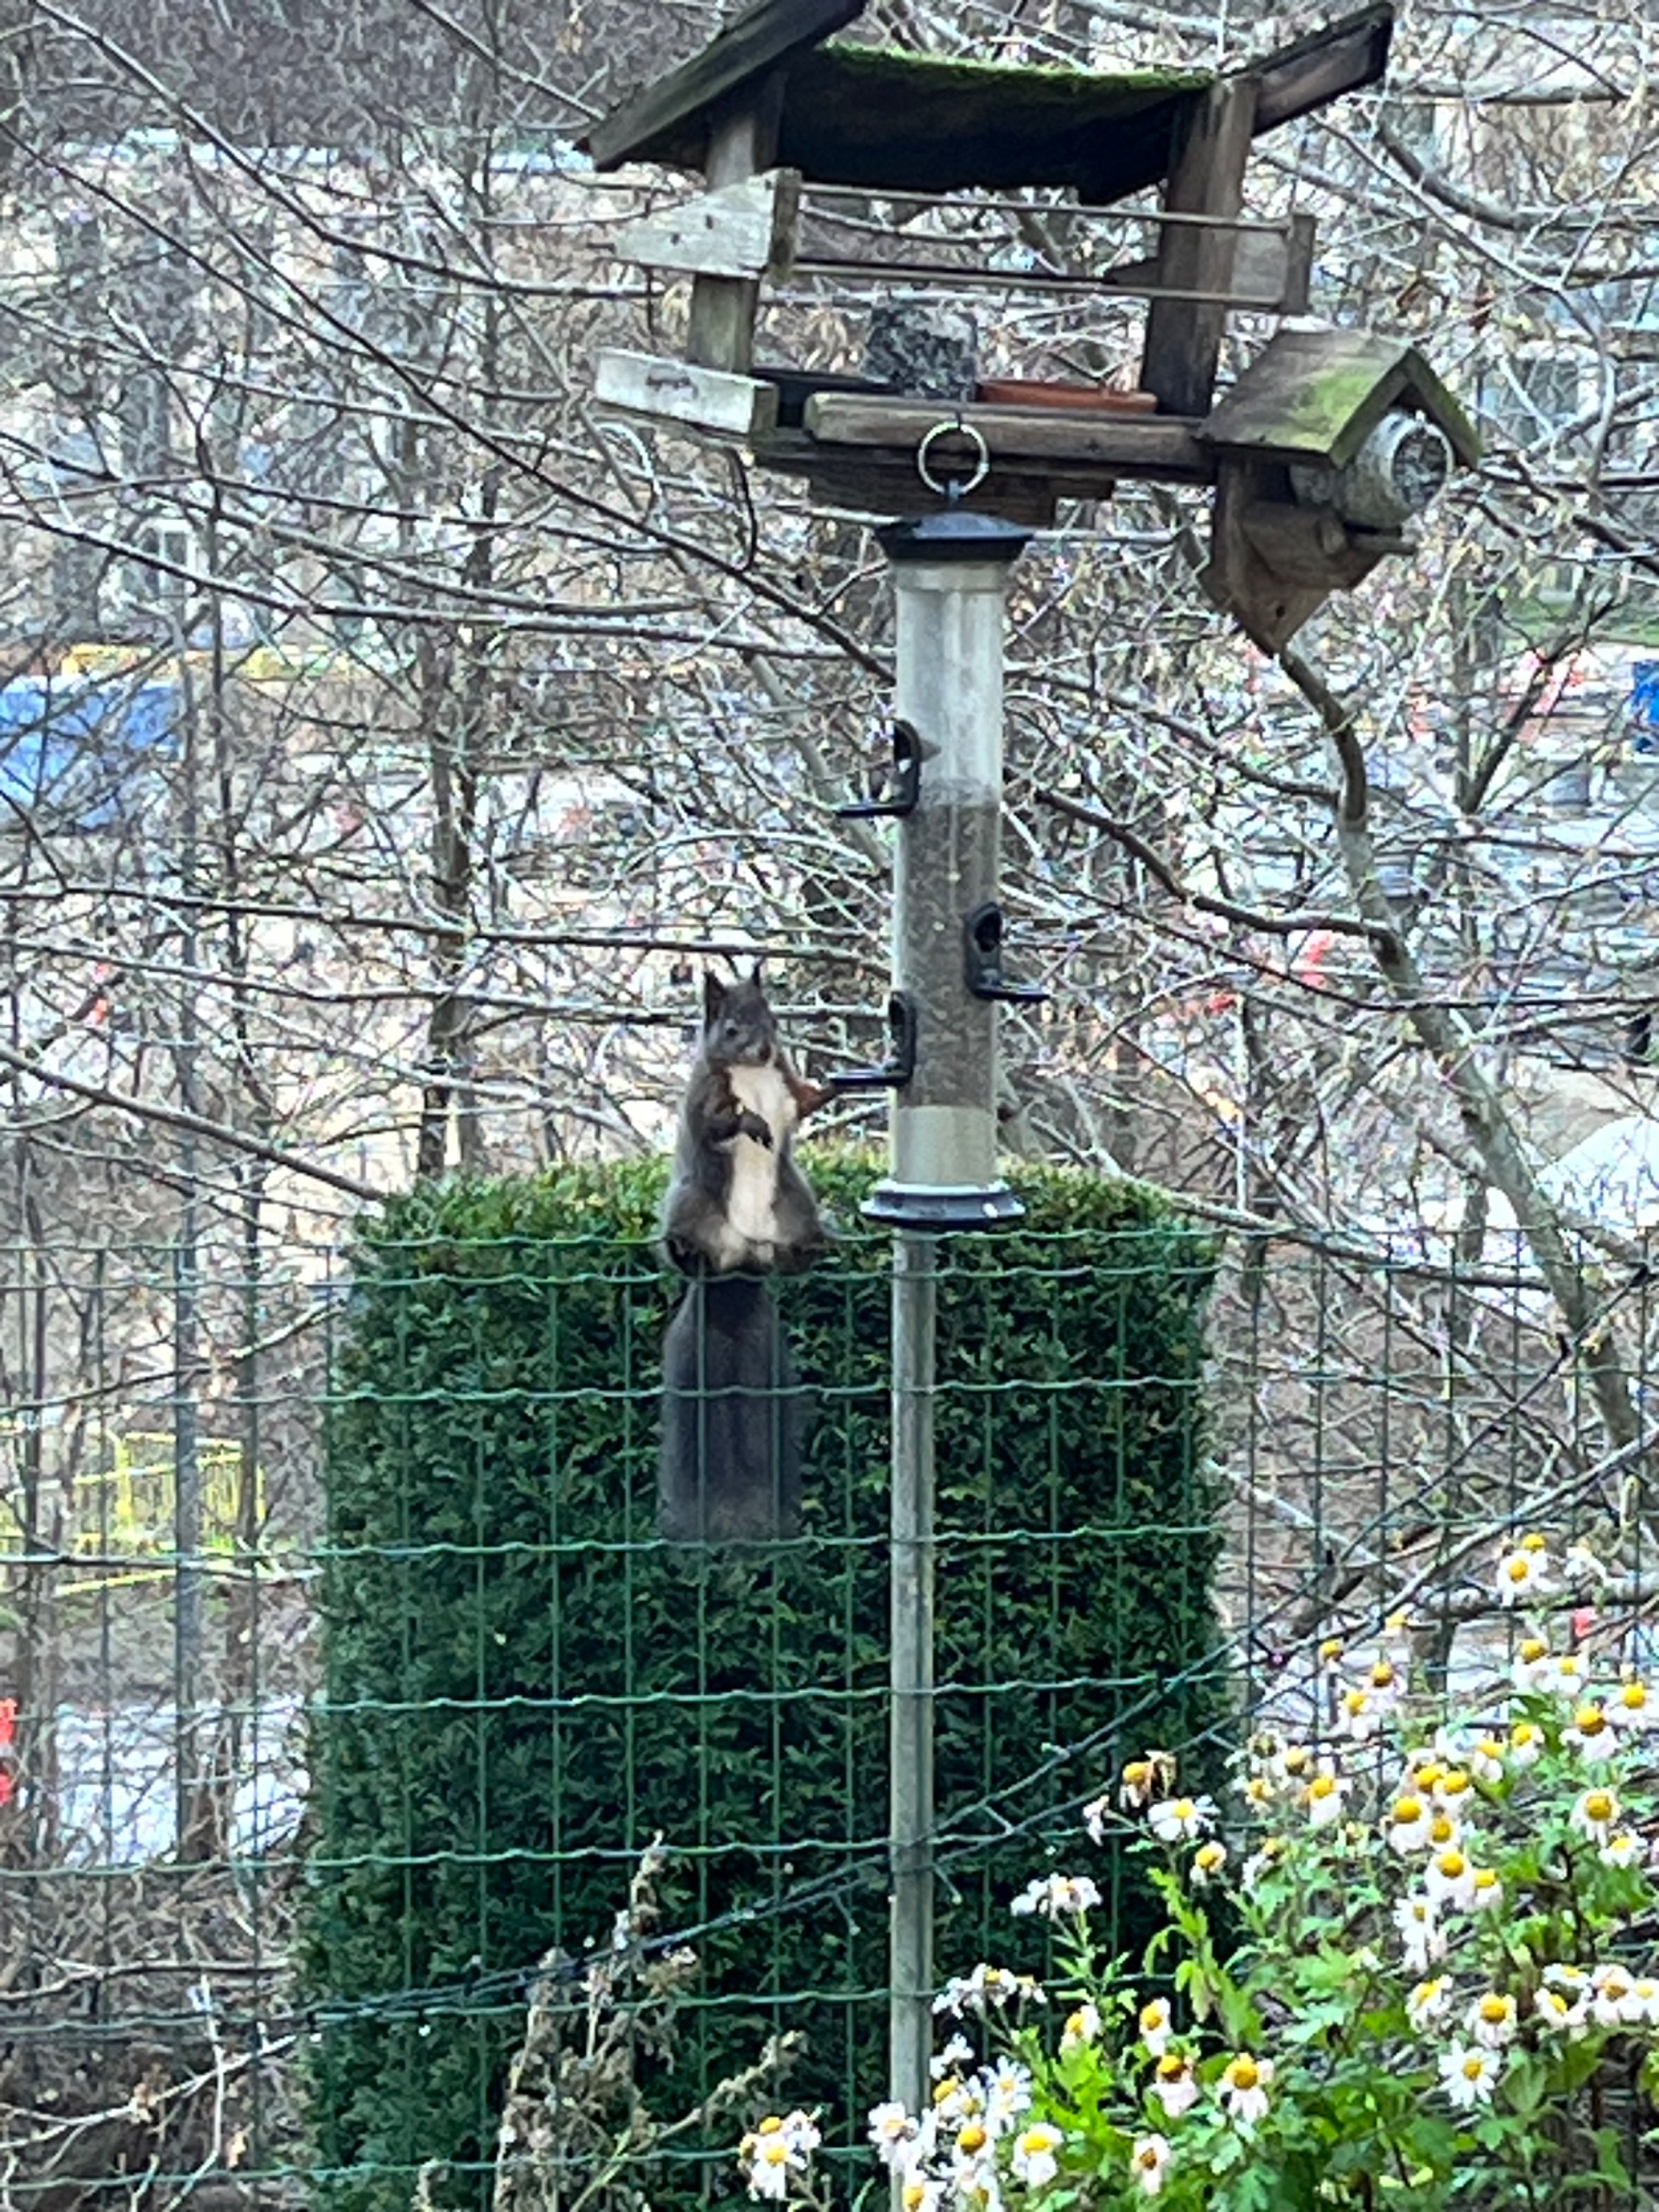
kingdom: Animalia
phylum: Chordata
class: Mammalia
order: Rodentia
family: Sciuridae
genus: Sciurus
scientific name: Sciurus vulgaris
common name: Egern
